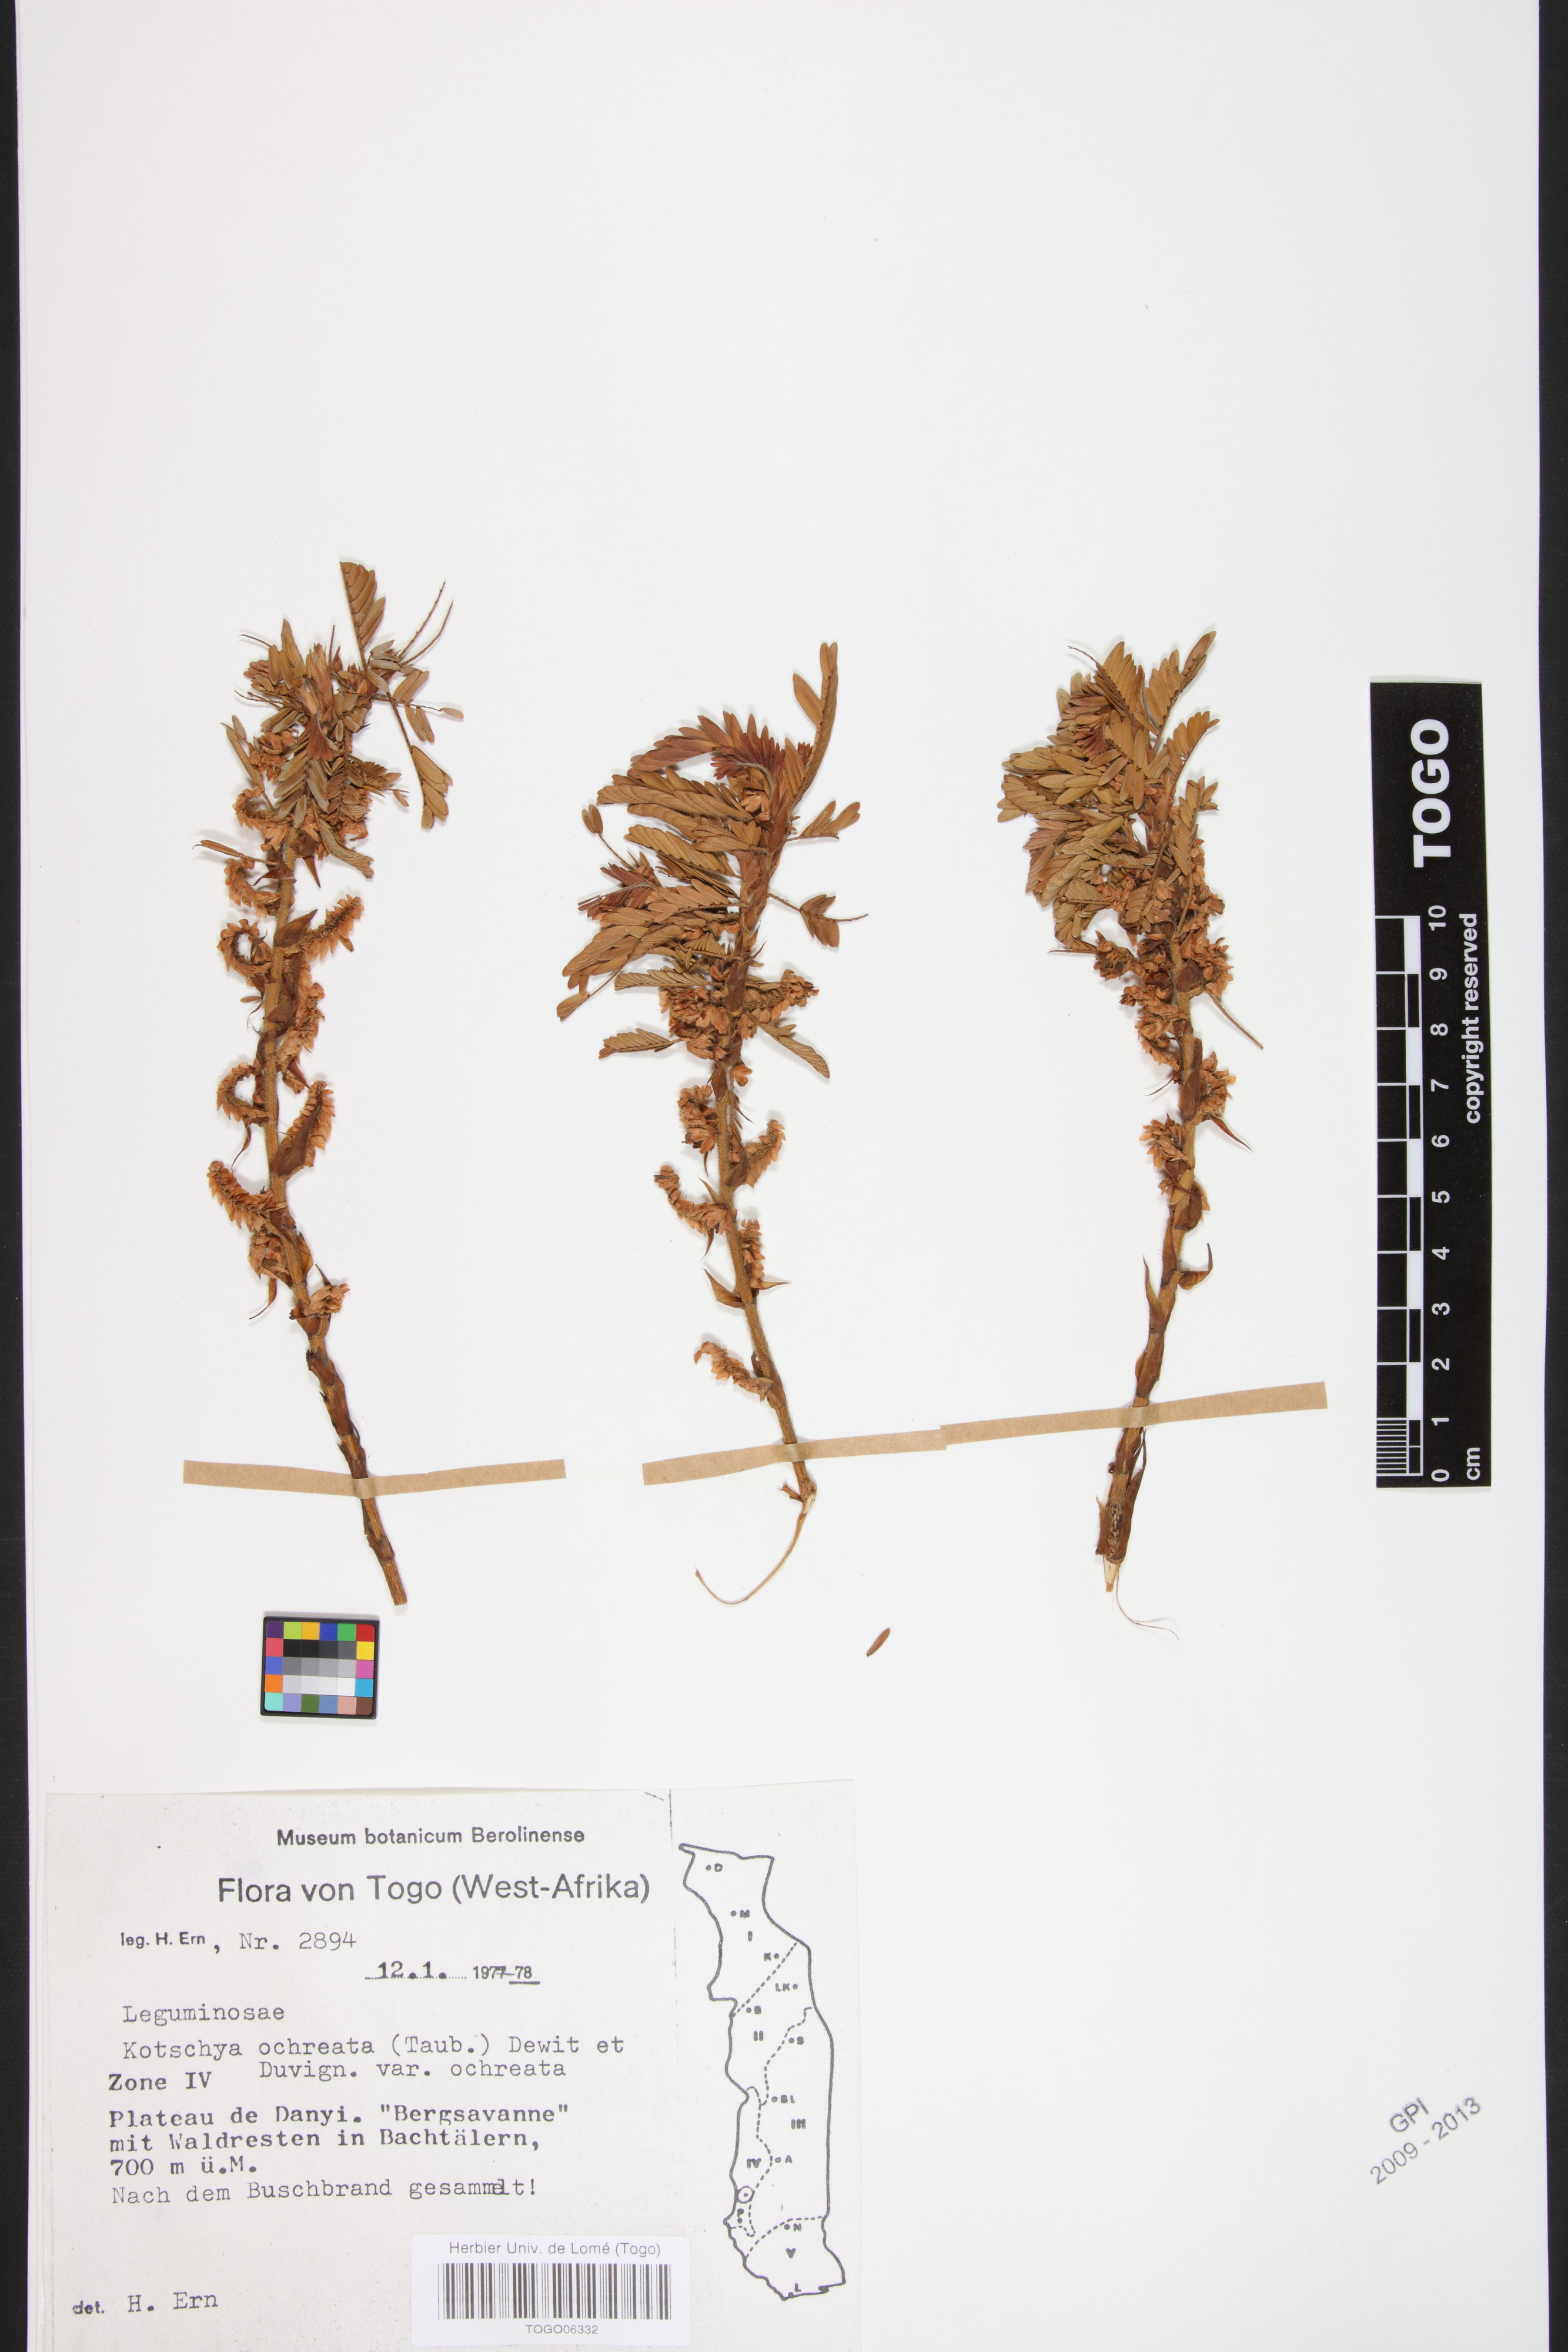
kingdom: Plantae
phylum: Tracheophyta
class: Magnoliopsida
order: Fabales
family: Fabaceae
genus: Kotschya
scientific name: Kotschya ochreata
